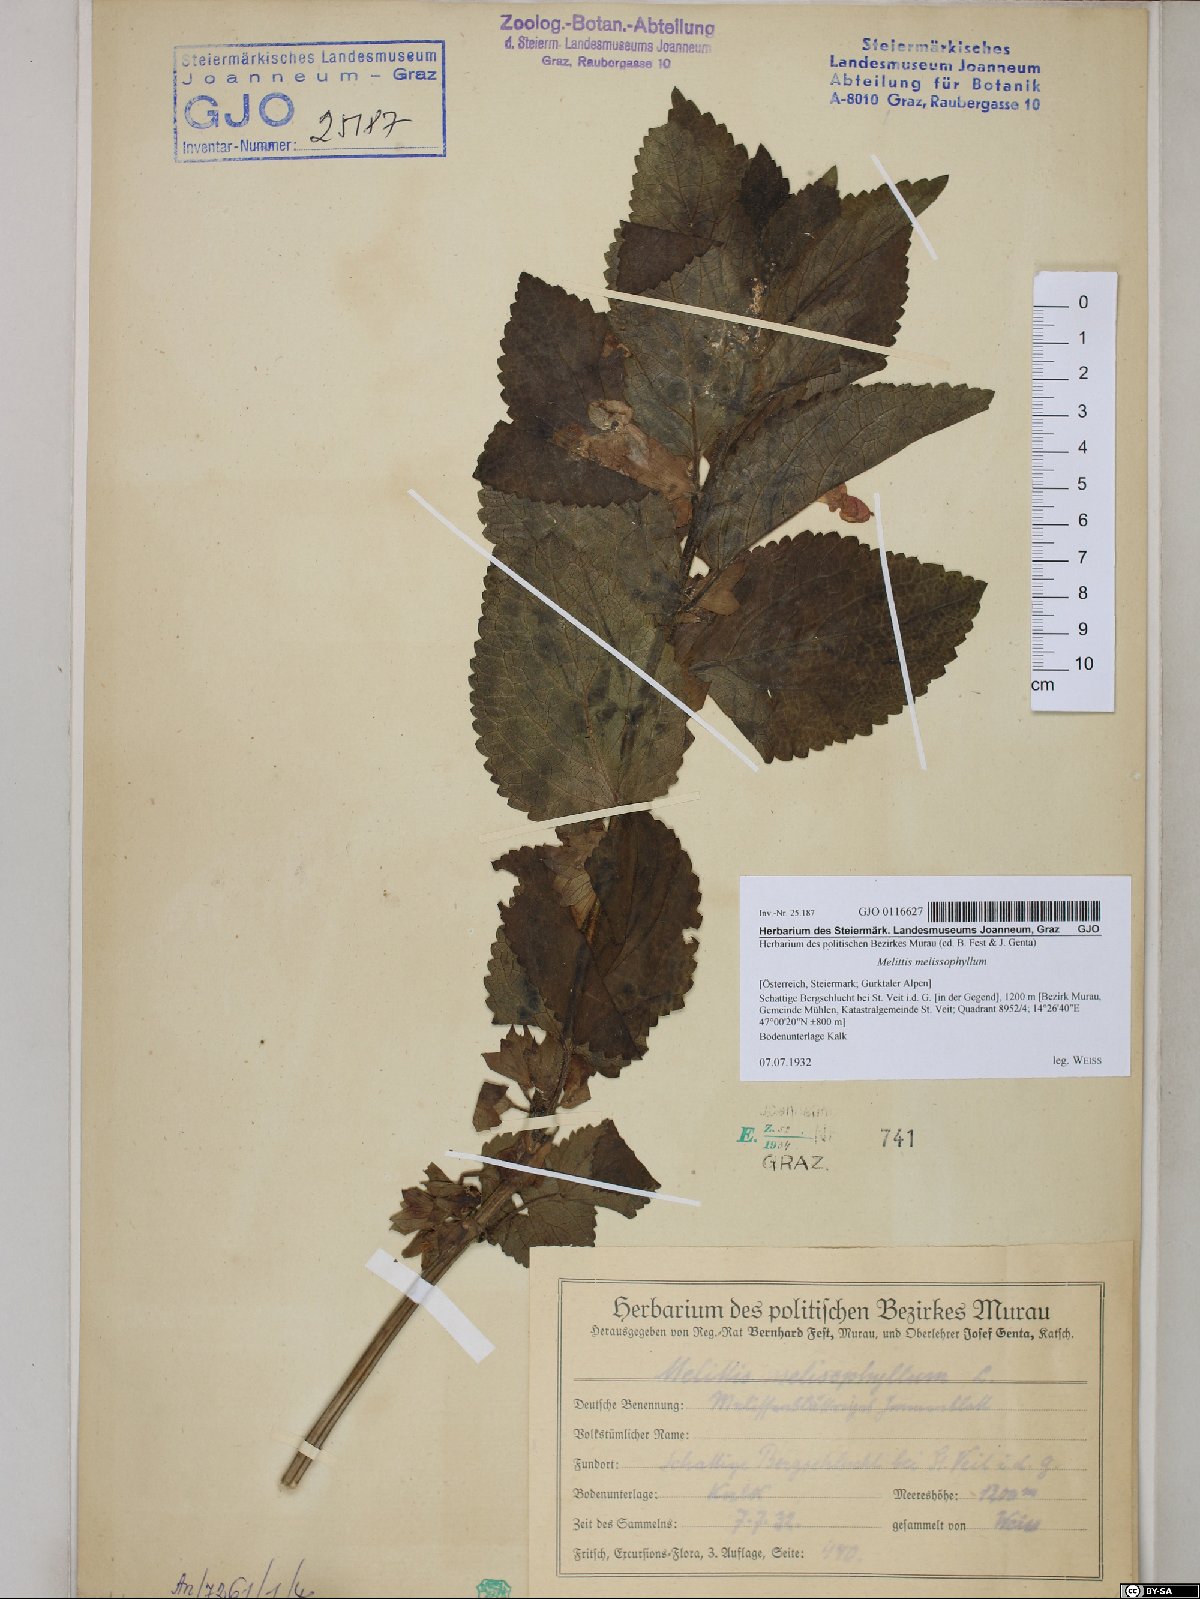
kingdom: Plantae
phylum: Tracheophyta
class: Magnoliopsida
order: Lamiales
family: Lamiaceae
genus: Melittis
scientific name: Melittis melissophyllum
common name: Bastard balm
